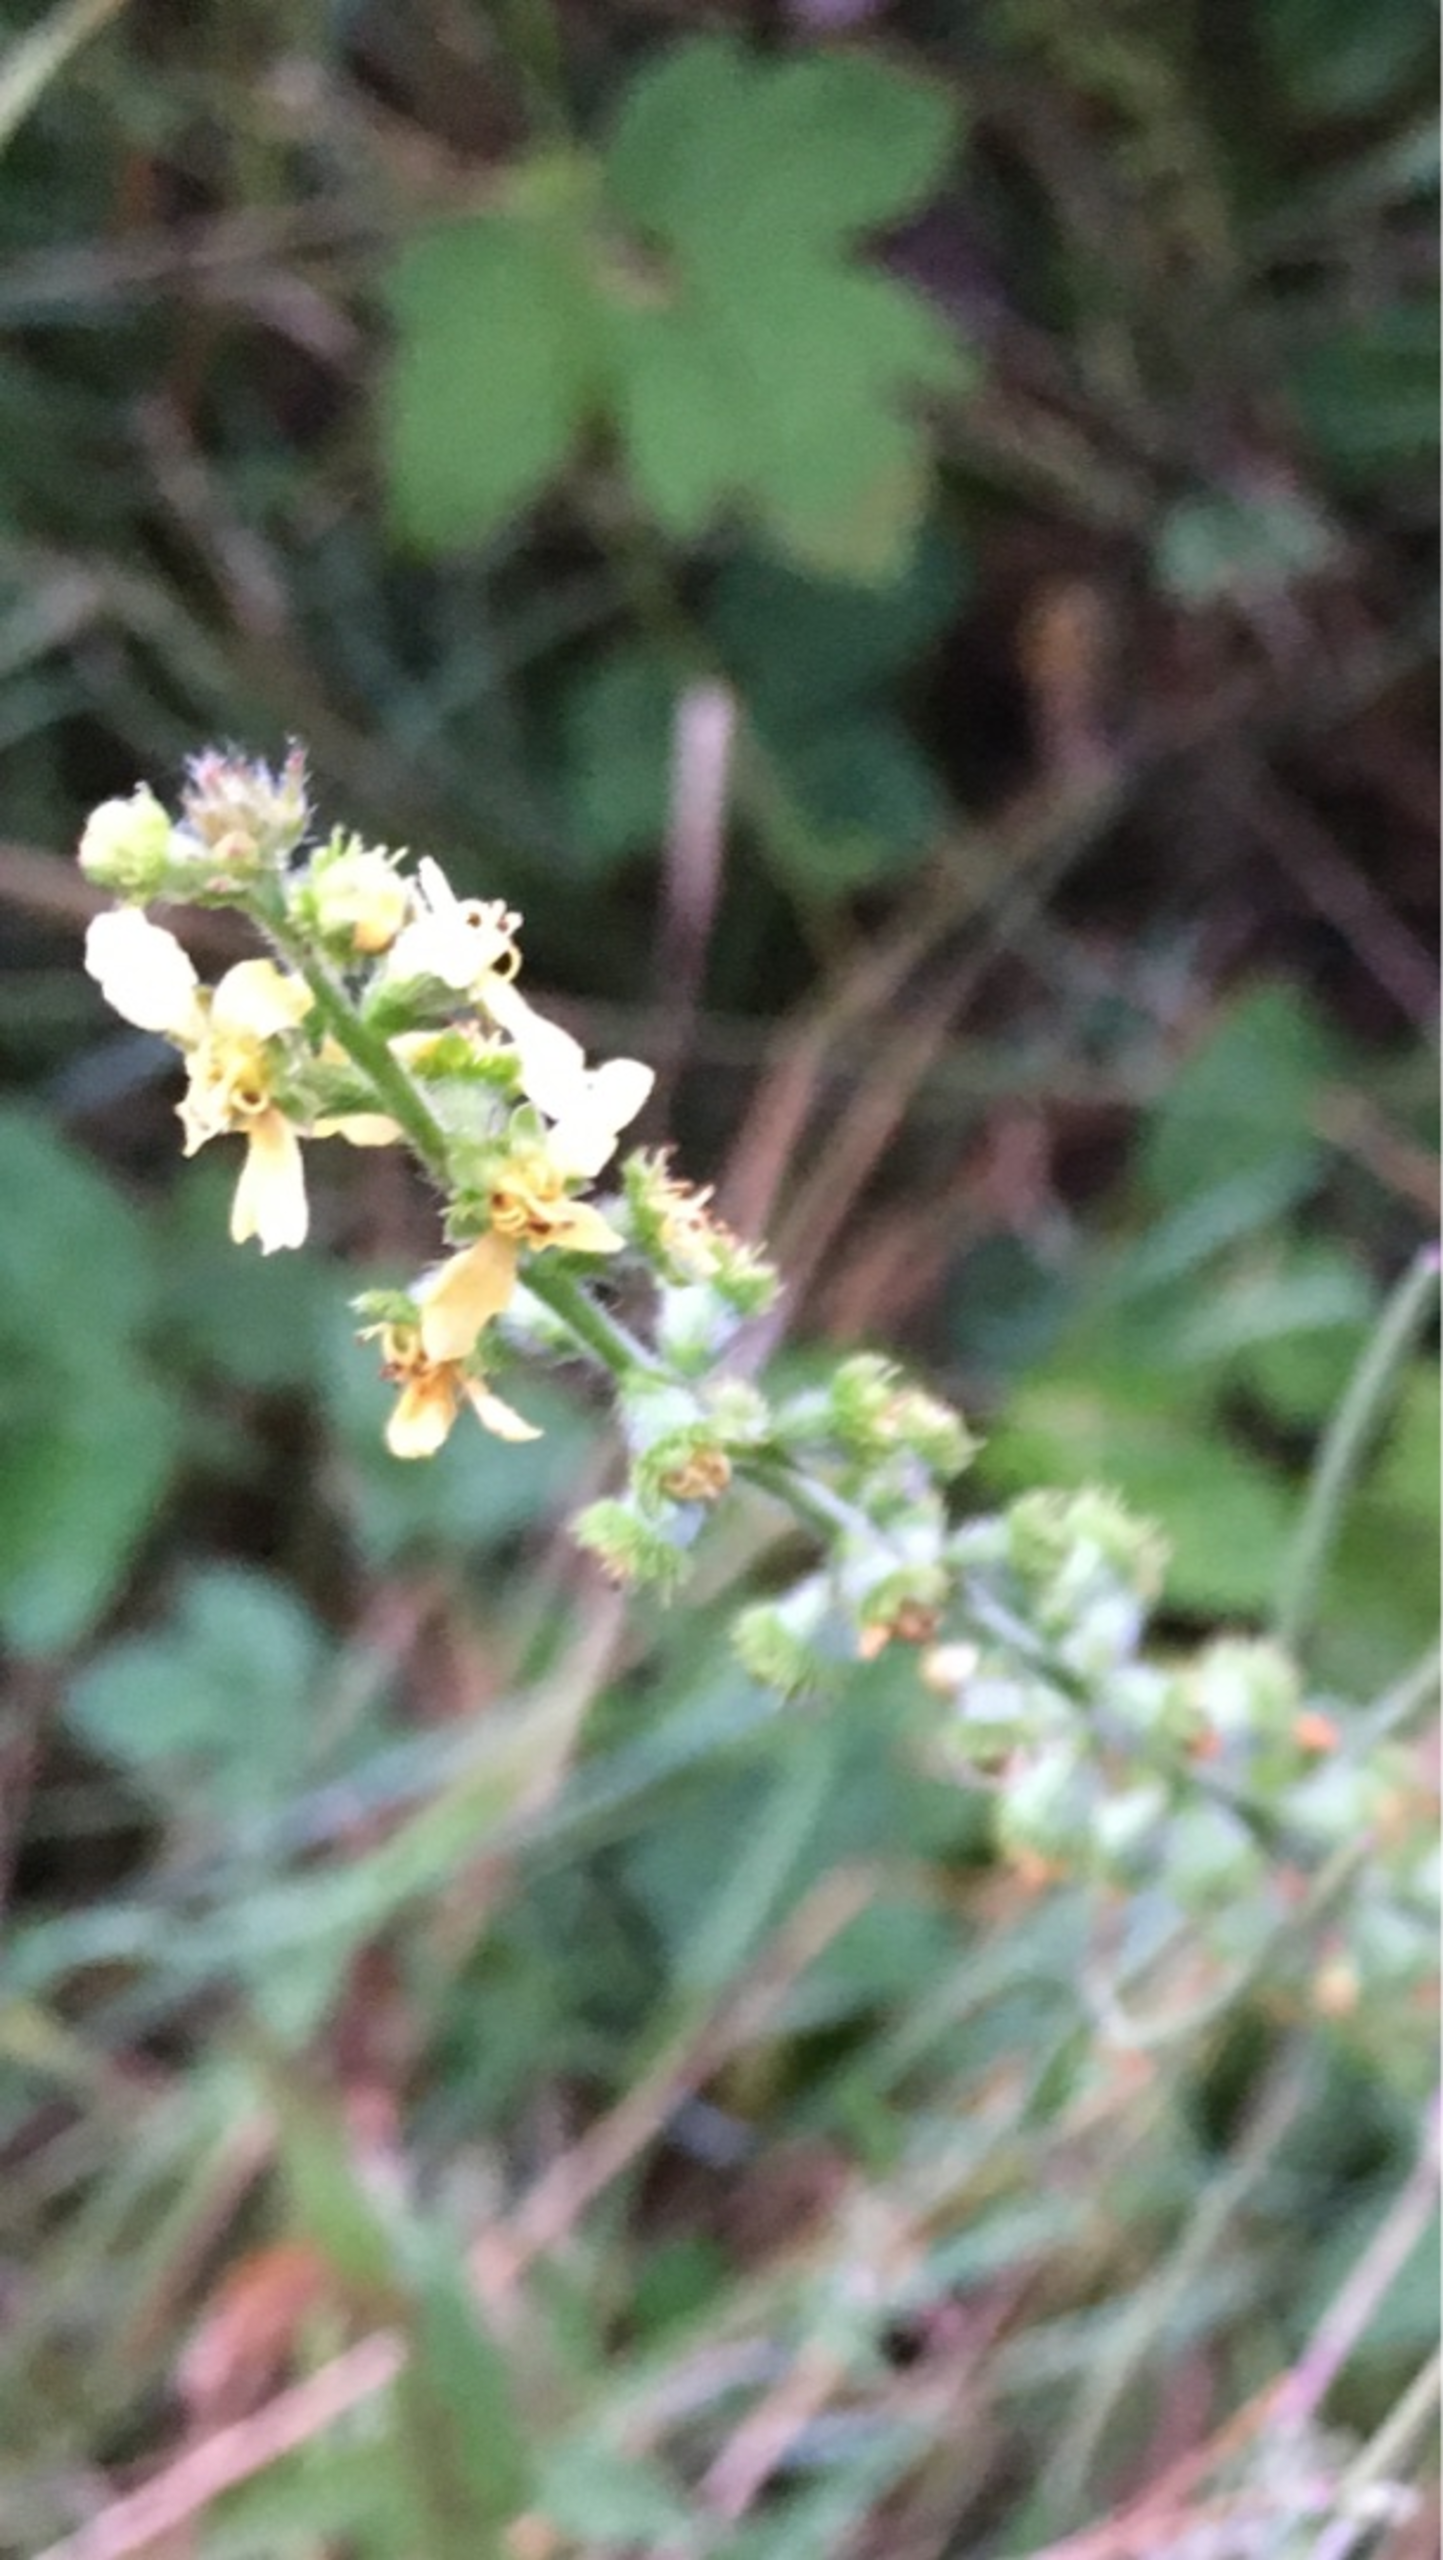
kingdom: Plantae
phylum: Tracheophyta
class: Magnoliopsida
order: Rosales
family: Rosaceae
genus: Agrimonia
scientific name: Agrimonia eupatoria
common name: Almindelig agermåne
